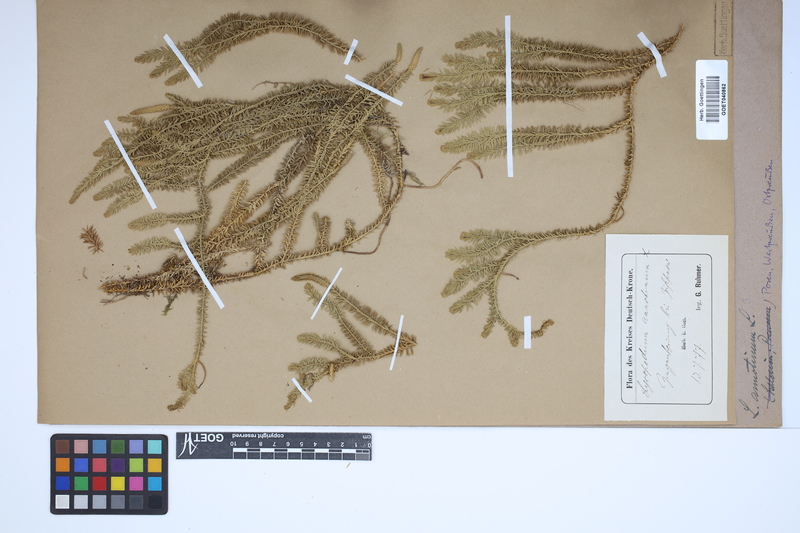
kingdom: Plantae
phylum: Tracheophyta
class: Lycopodiopsida
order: Lycopodiales
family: Lycopodiaceae
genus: Spinulum
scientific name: Spinulum annotinum
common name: Interrupted club-moss
